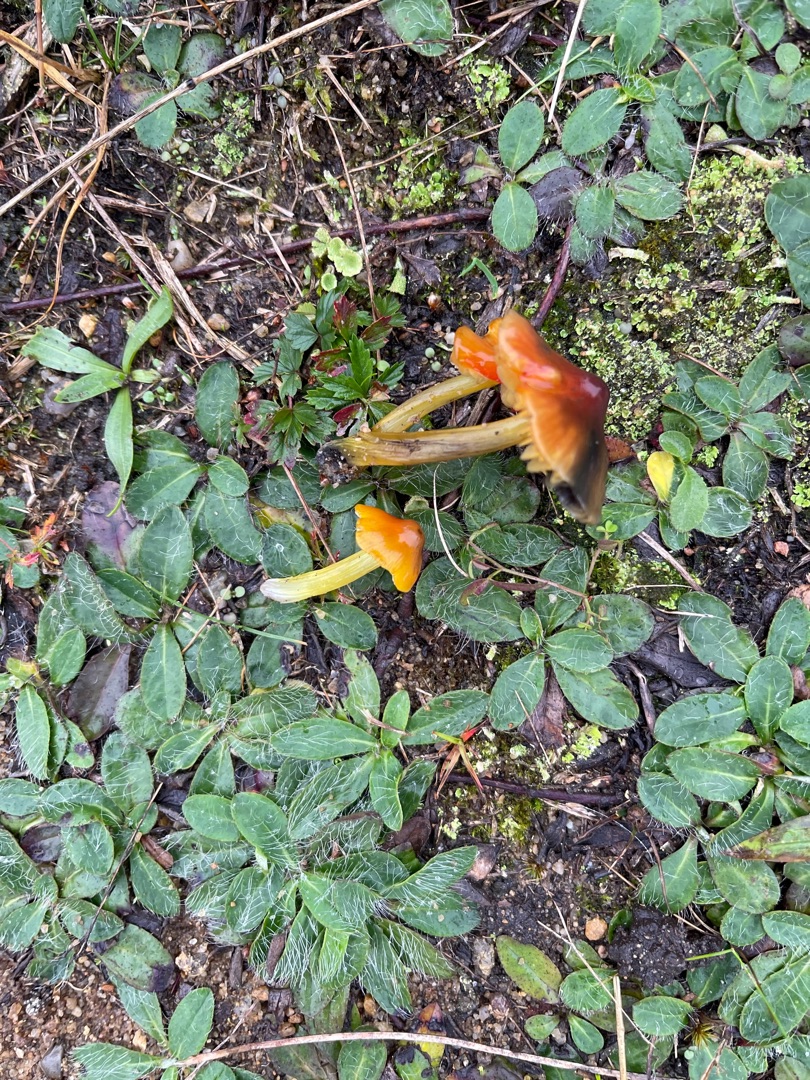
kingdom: Fungi
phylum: Basidiomycota
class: Agaricomycetes
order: Agaricales
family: Hygrophoraceae
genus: Hygrocybe
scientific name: Hygrocybe conica
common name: Kegle-vokshat
